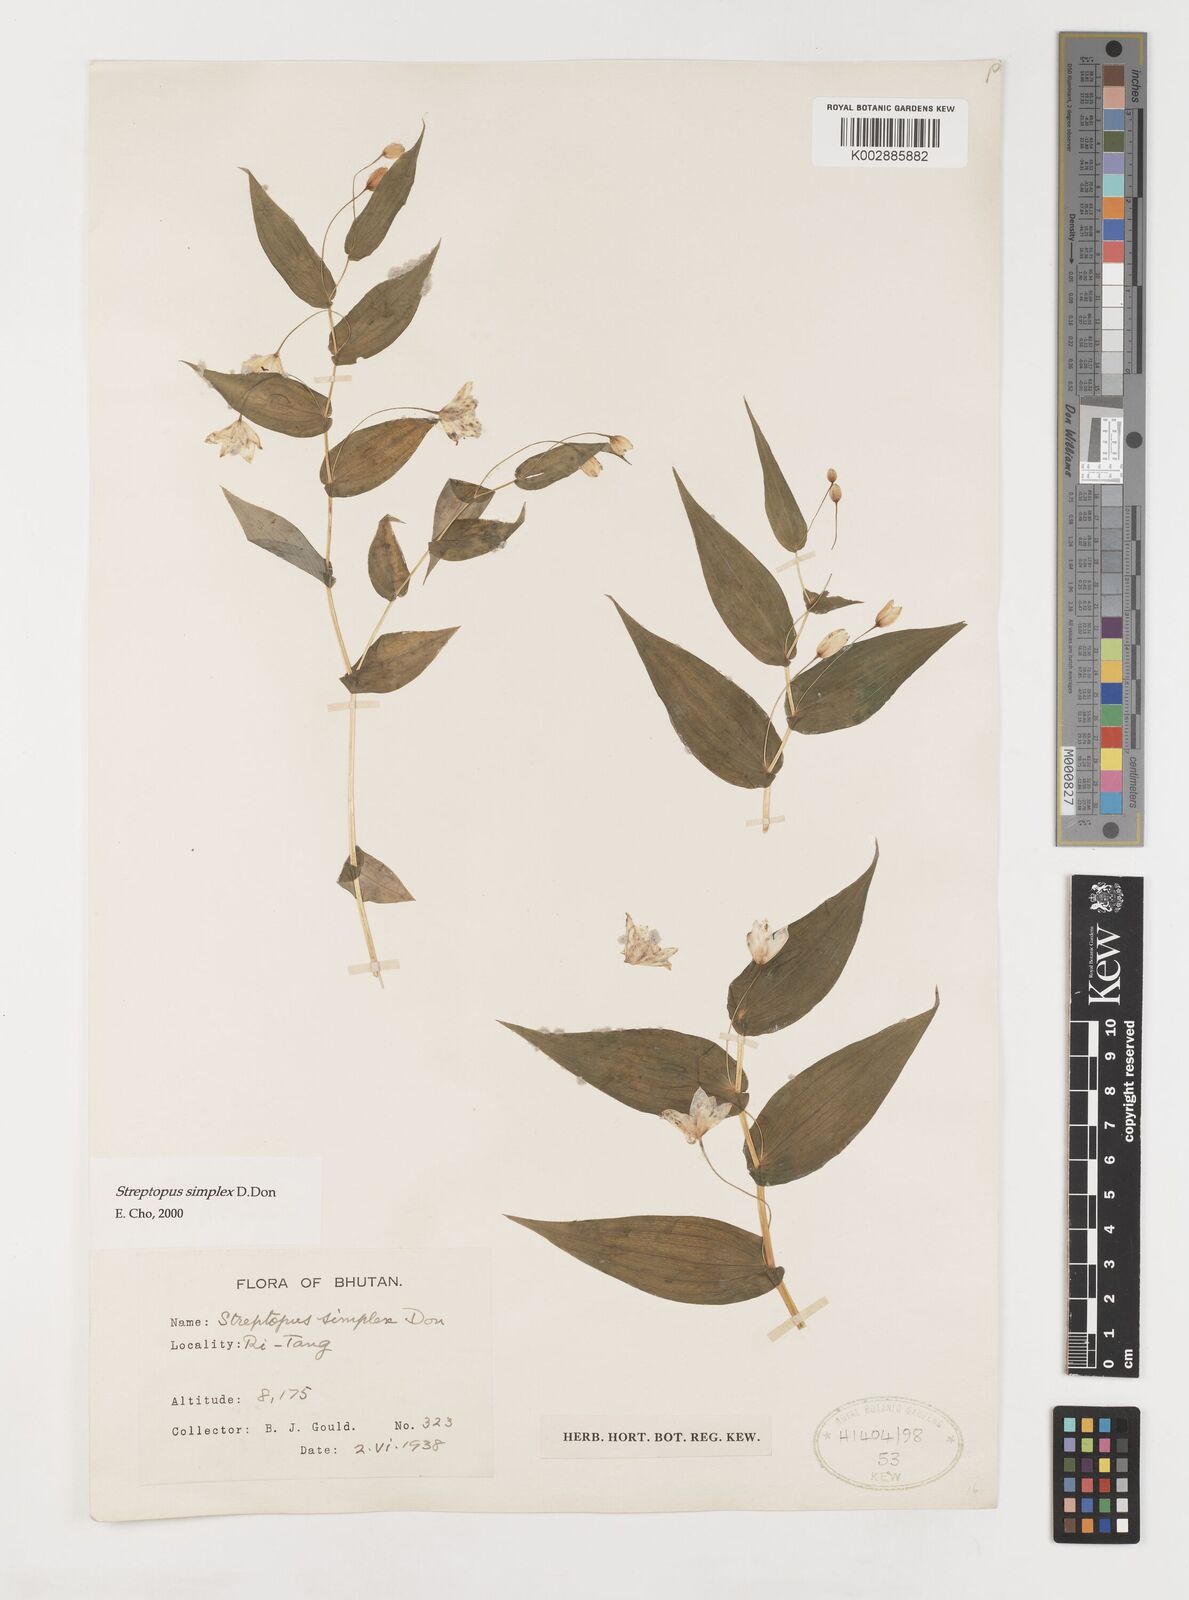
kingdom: Plantae
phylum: Tracheophyta
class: Liliopsida
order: Liliales
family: Liliaceae
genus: Streptopus
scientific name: Streptopus simplex
